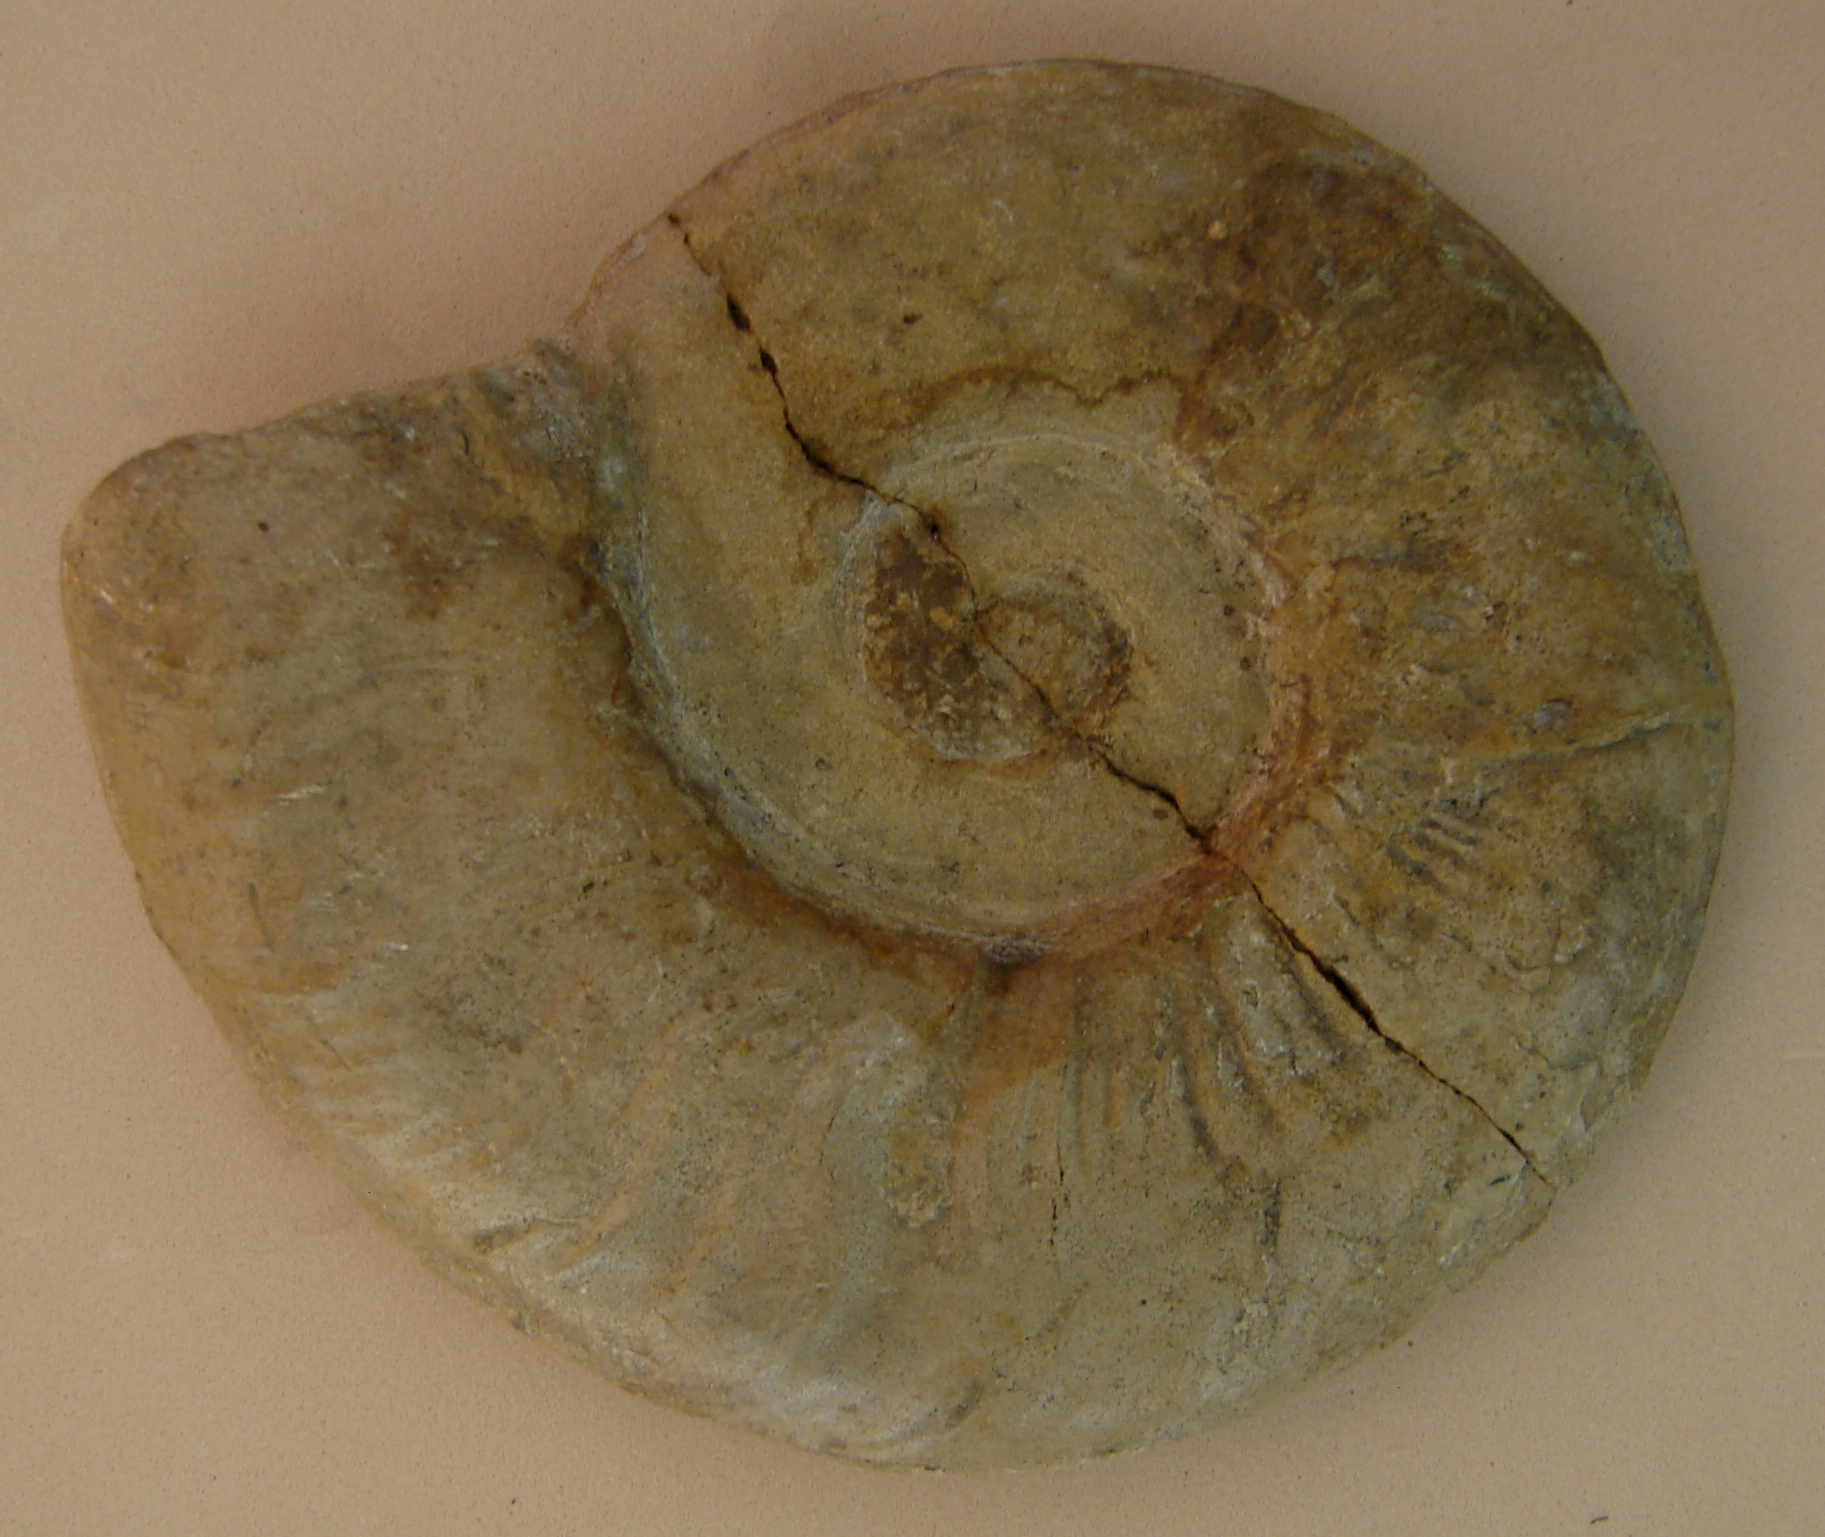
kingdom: Animalia
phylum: Mollusca
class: Cephalopoda
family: Hildoceratidae
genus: Pleydellia
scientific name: Pleydellia mactra
